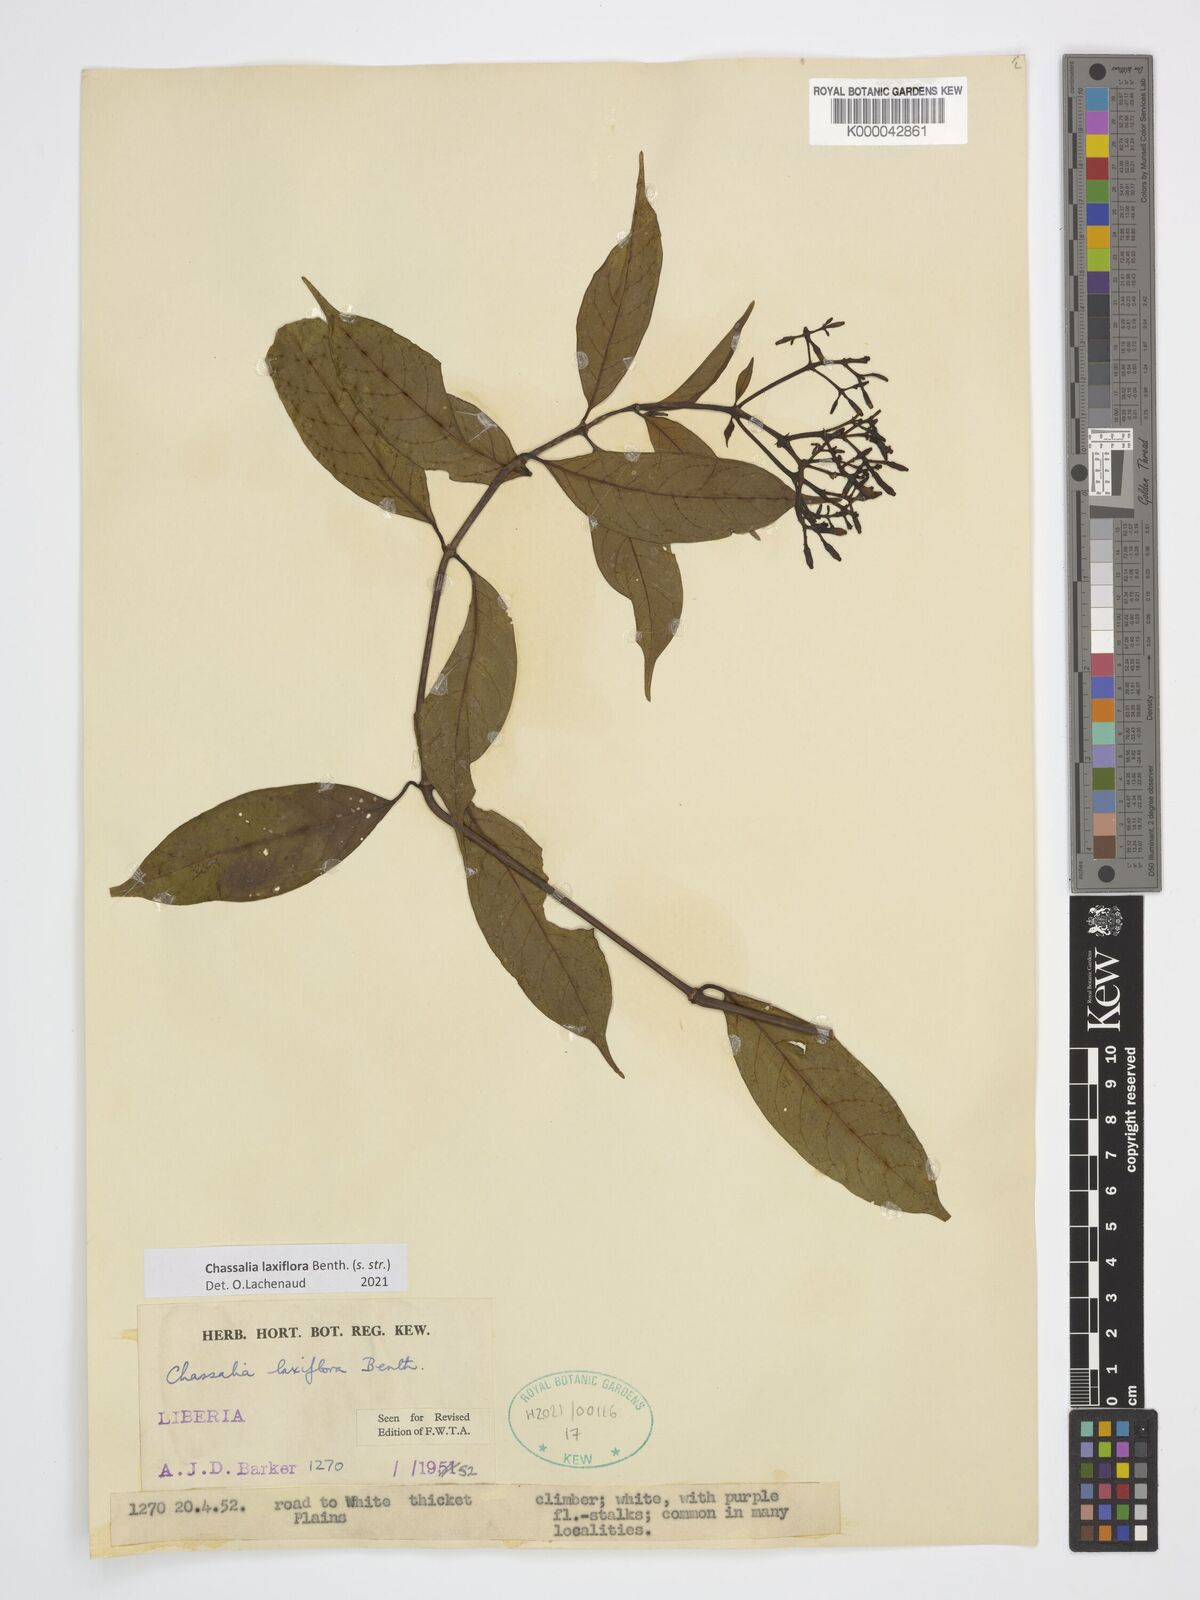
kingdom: Plantae
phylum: Tracheophyta
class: Magnoliopsida
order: Gentianales
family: Rubiaceae
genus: Chassalia
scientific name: Chassalia laxiflora
